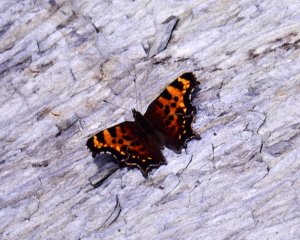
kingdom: Animalia
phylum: Arthropoda
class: Insecta
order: Lepidoptera
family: Nymphalidae
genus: Polygonia
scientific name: Polygonia faunus
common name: Green Comma
